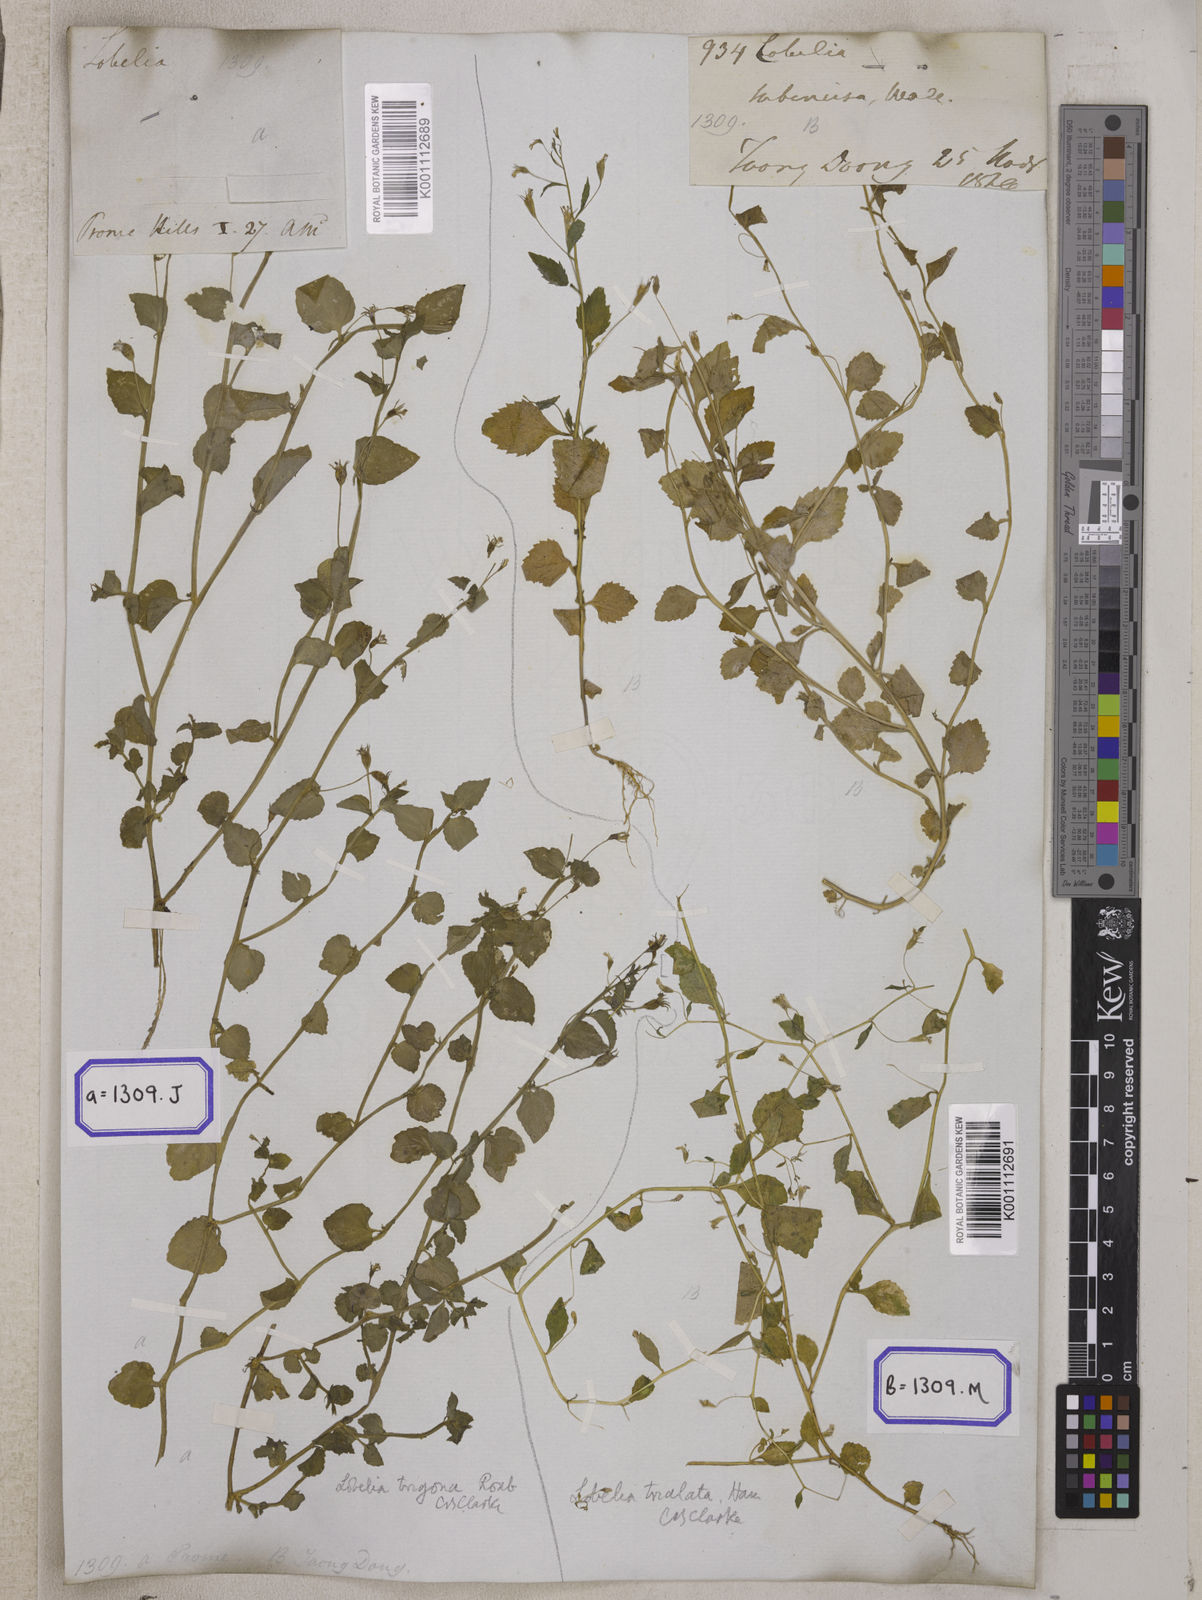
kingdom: Plantae
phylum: Tracheophyta
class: Magnoliopsida
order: Asterales
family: Campanulaceae
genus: Lobelia
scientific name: Lobelia alsinoides
